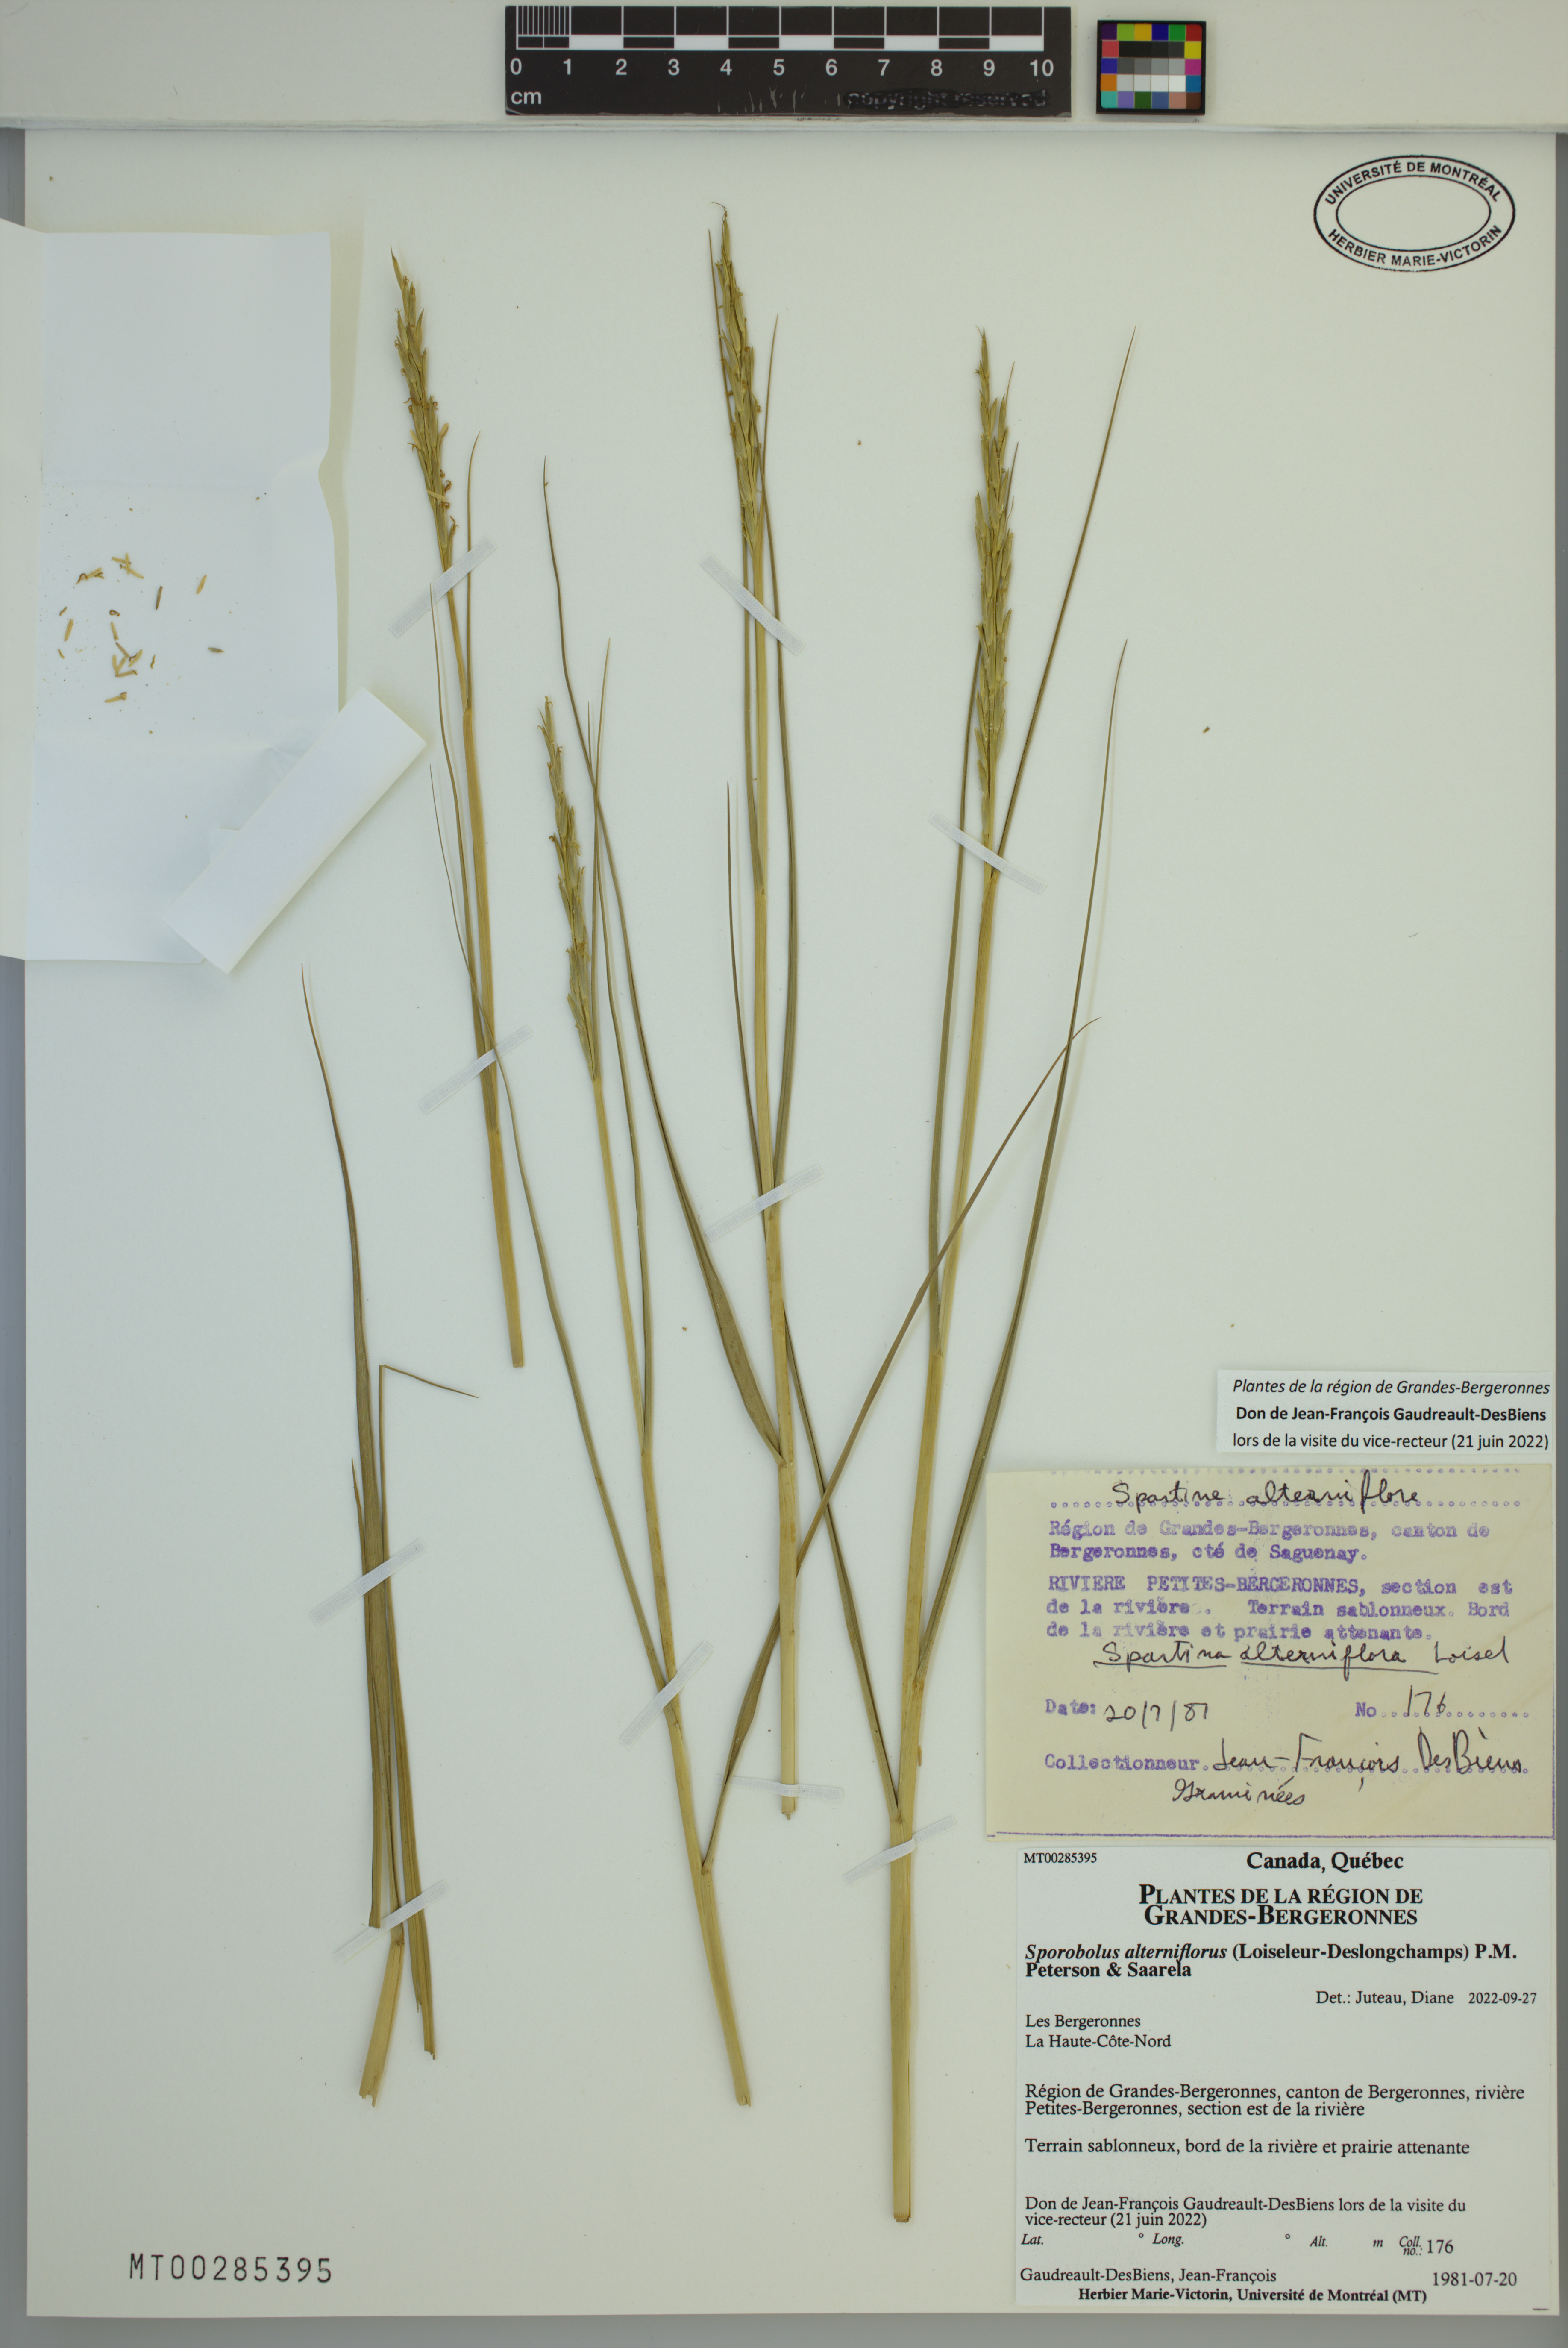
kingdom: Plantae
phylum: Tracheophyta
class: Liliopsida
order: Poales
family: Poaceae
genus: Sporobolus
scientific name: Sporobolus alterniflorus
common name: Atlantic cordgrass
